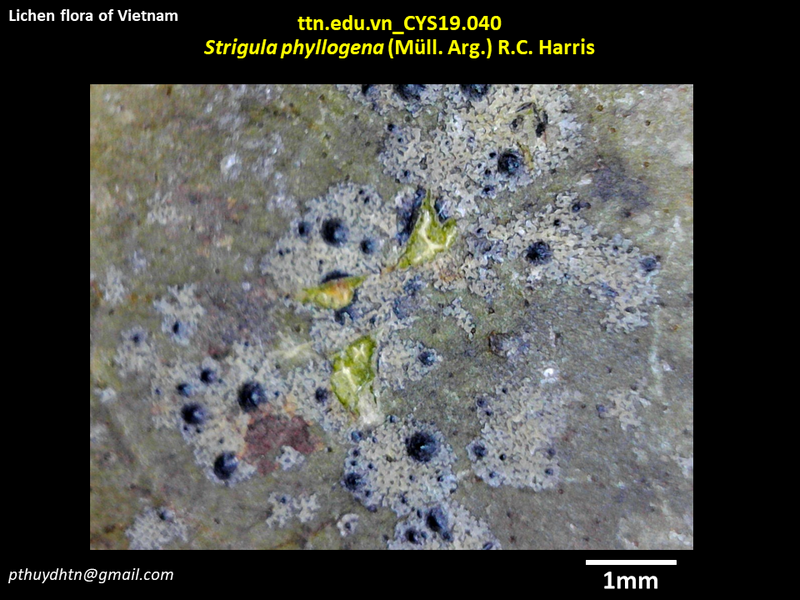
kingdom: Fungi
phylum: Ascomycota
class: Dothideomycetes
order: Strigulales
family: Strigulaceae
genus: Phylloporis
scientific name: Phylloporis phyllogena
